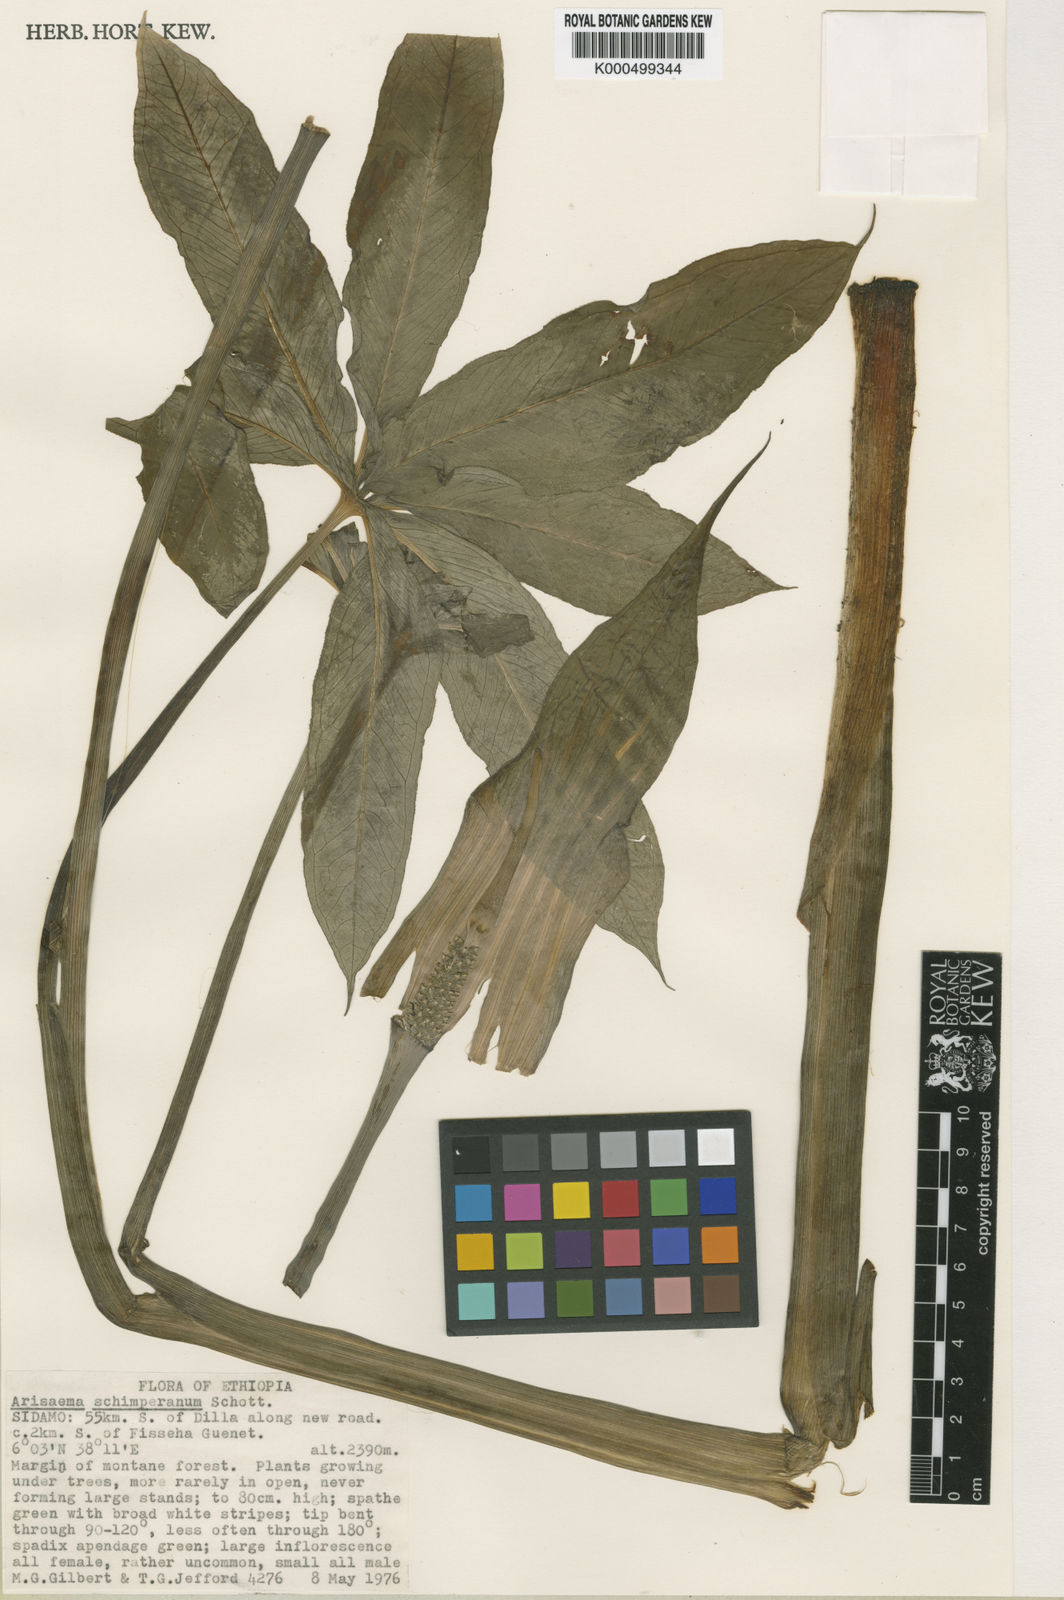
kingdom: Plantae
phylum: Tracheophyta
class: Liliopsida
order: Alismatales
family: Araceae
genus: Arisaema
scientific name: Arisaema schimperianum
